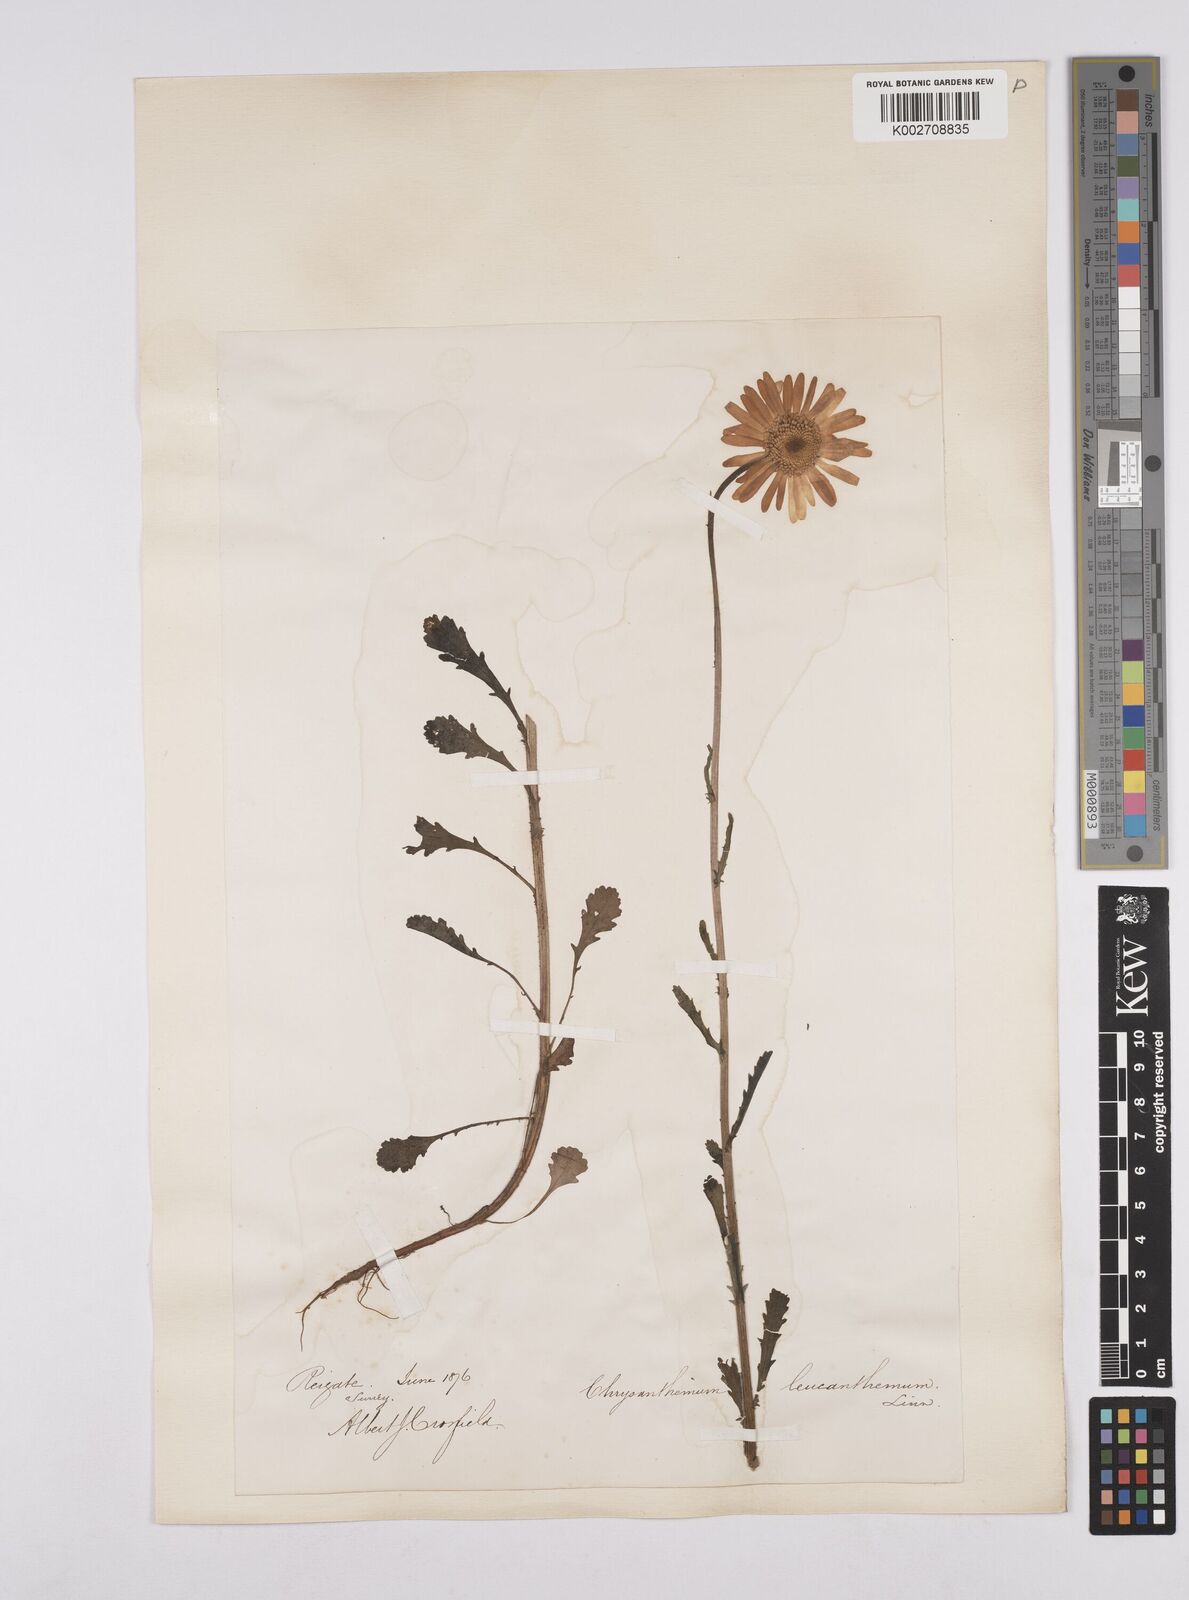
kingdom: Plantae
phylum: Tracheophyta
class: Magnoliopsida
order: Asterales
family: Asteraceae
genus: Leucanthemum
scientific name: Leucanthemum
